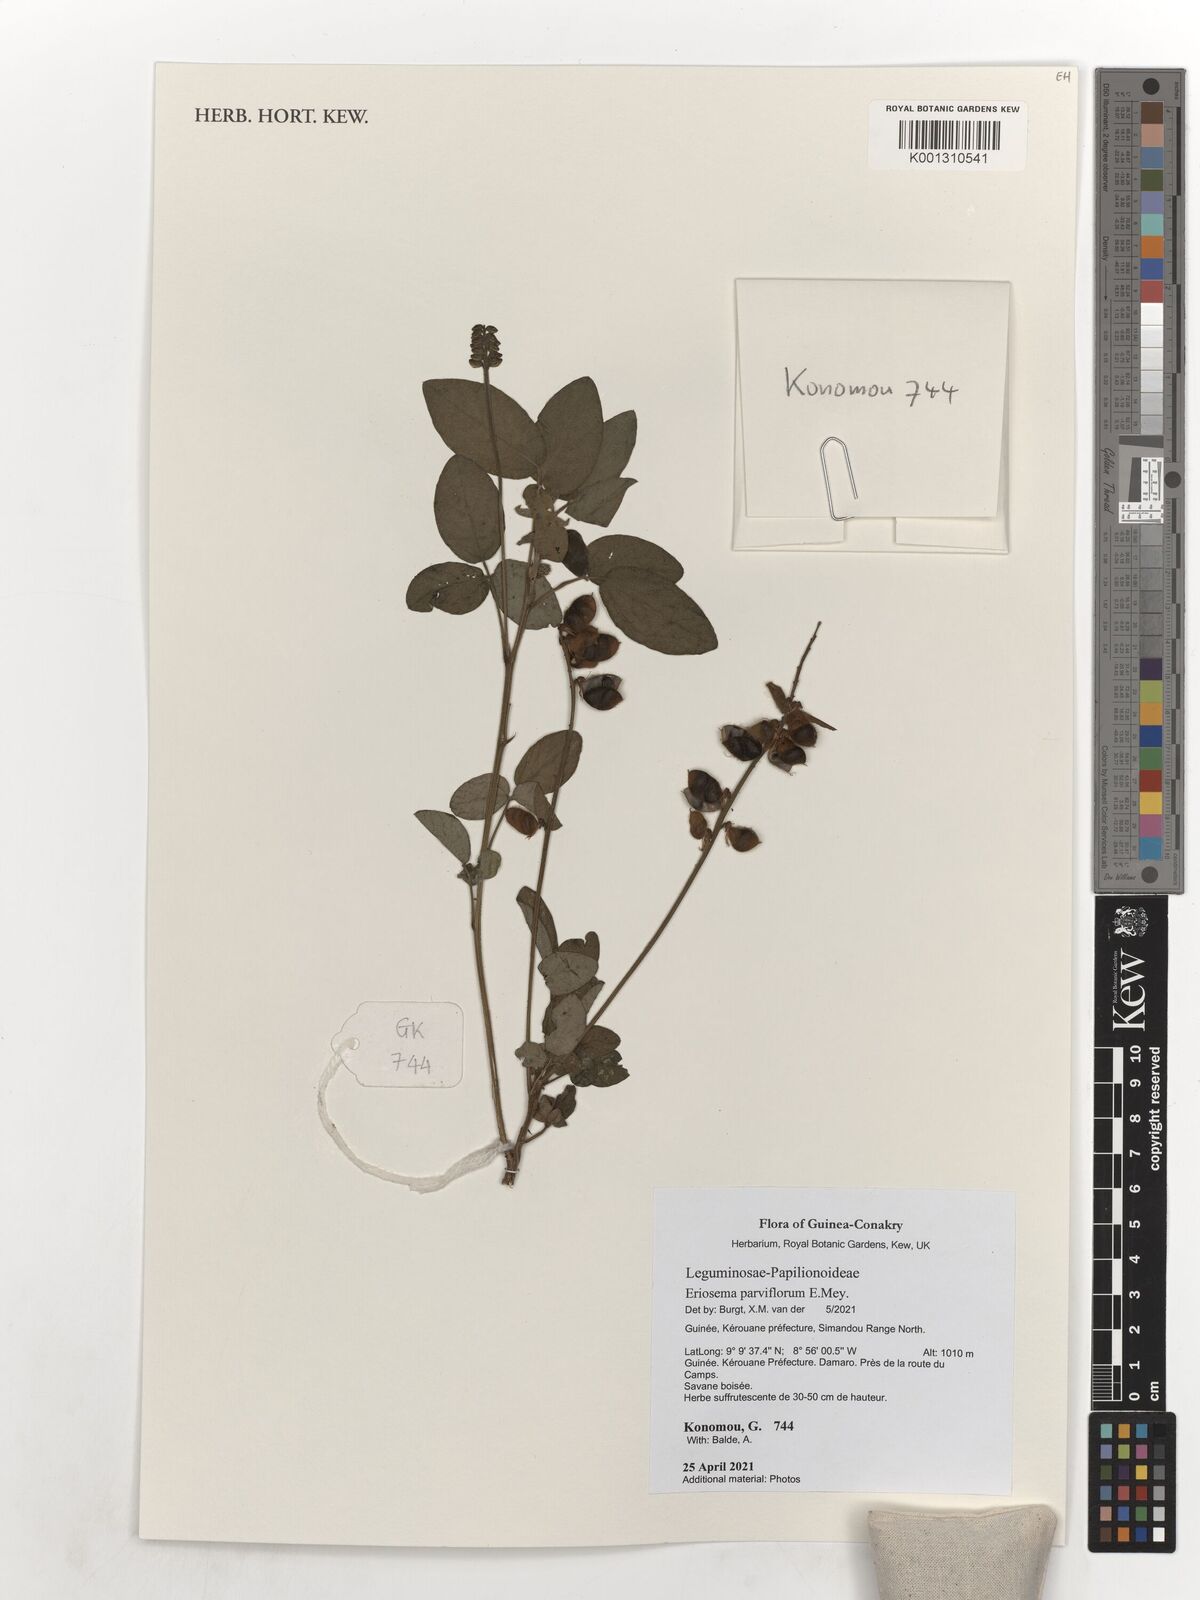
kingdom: Plantae
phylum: Tracheophyta
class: Magnoliopsida
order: Fabales
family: Fabaceae
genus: Eriosema
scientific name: Eriosema parviflorum
